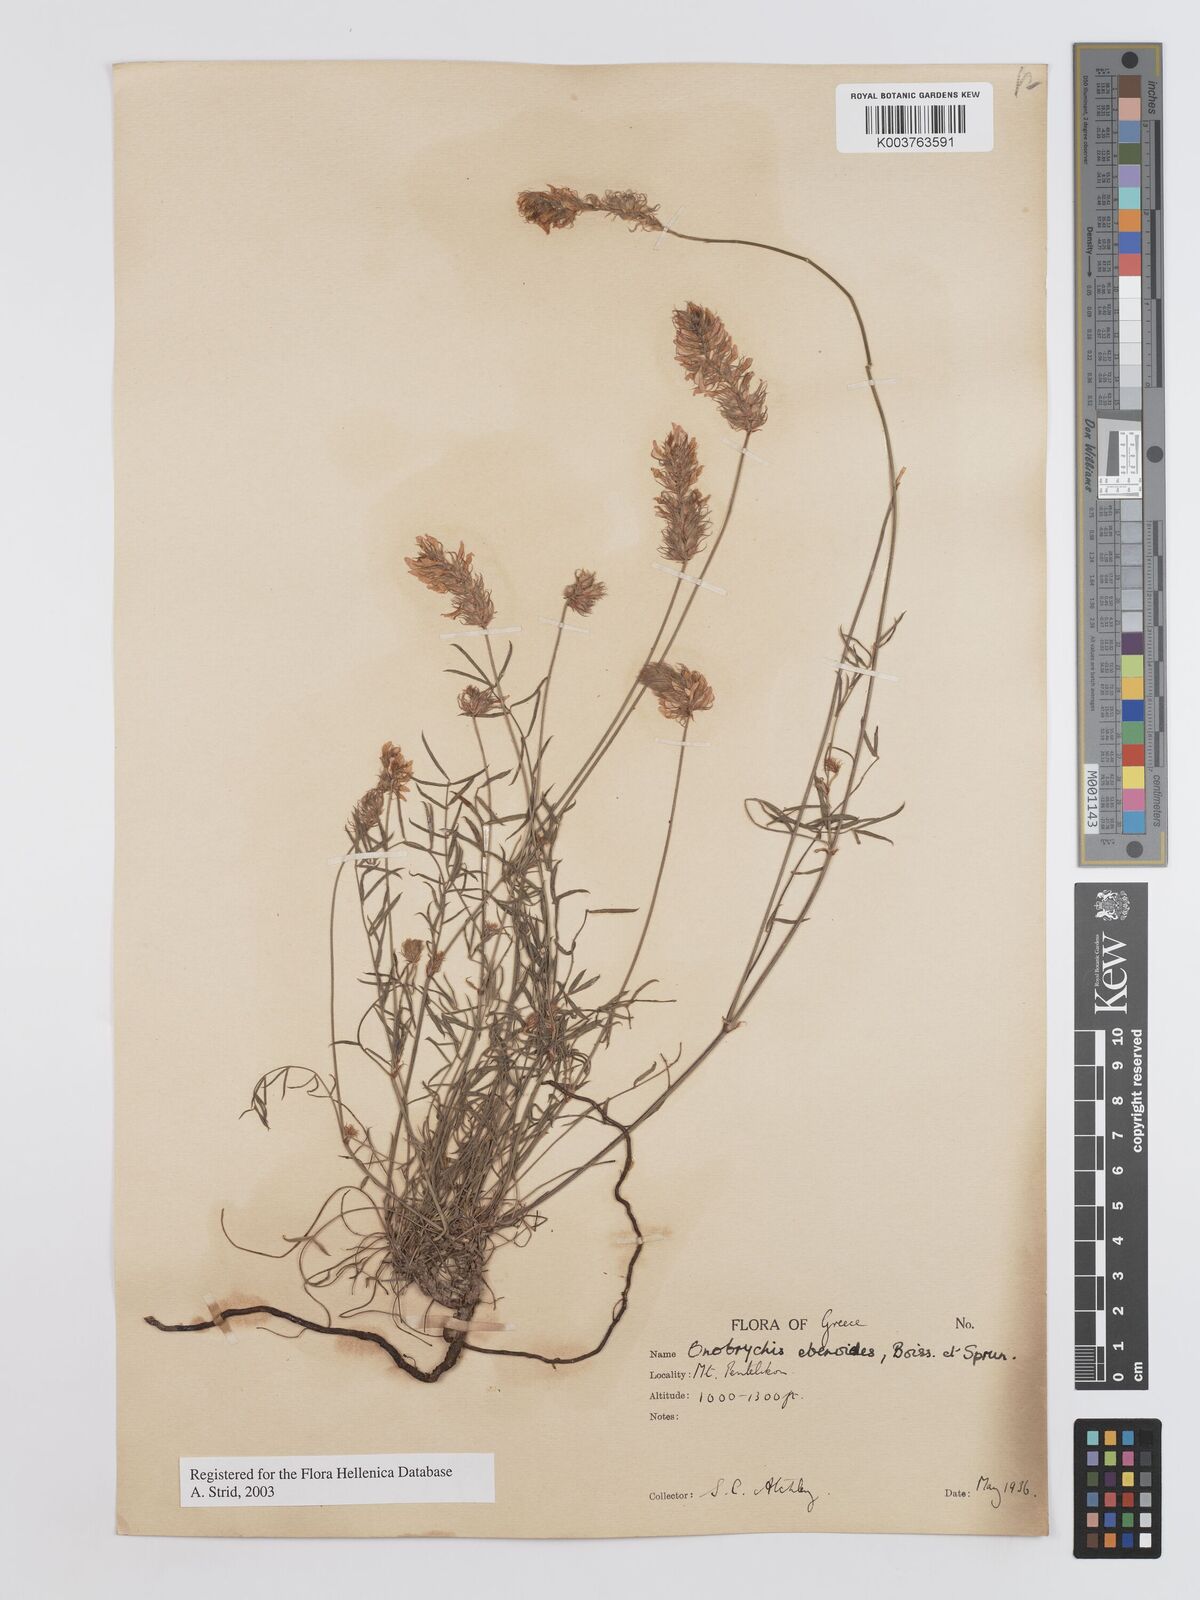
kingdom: Plantae
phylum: Tracheophyta
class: Magnoliopsida
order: Fabales
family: Fabaceae
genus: Onobrychis
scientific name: Onobrychis ebenoides
